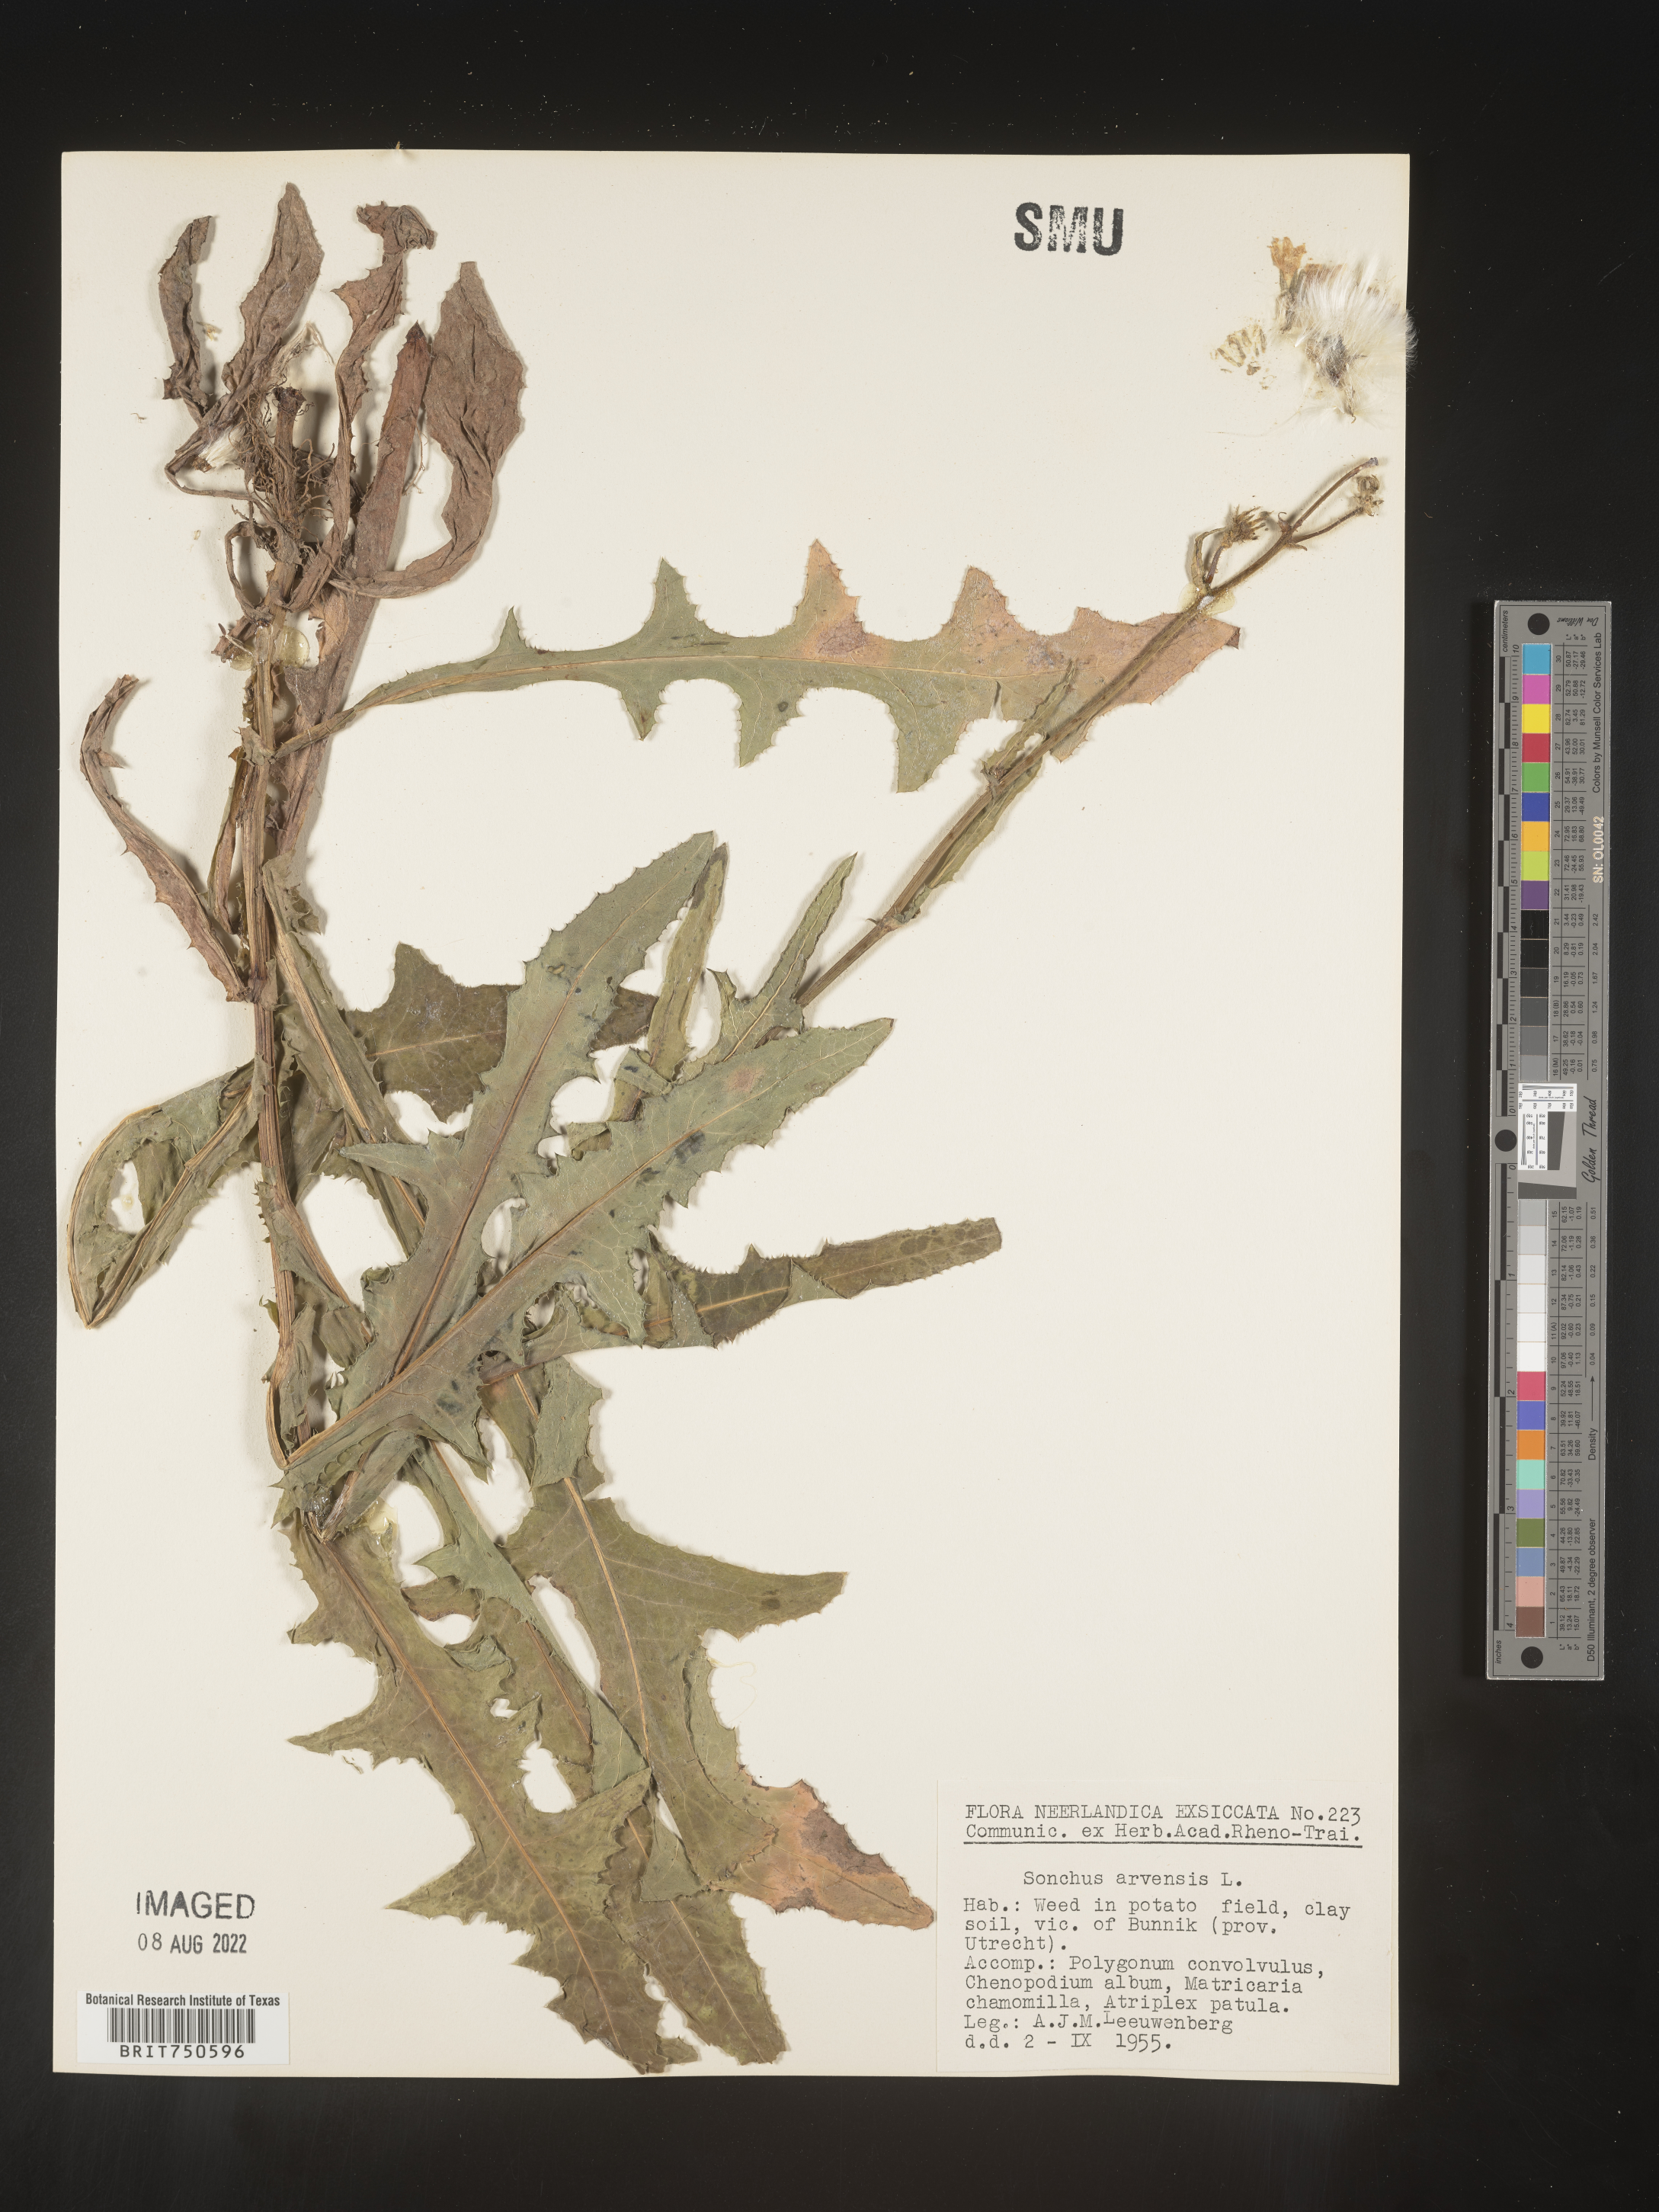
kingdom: Plantae
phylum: Tracheophyta
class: Magnoliopsida
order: Asterales
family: Asteraceae
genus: Sonchus
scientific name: Sonchus
